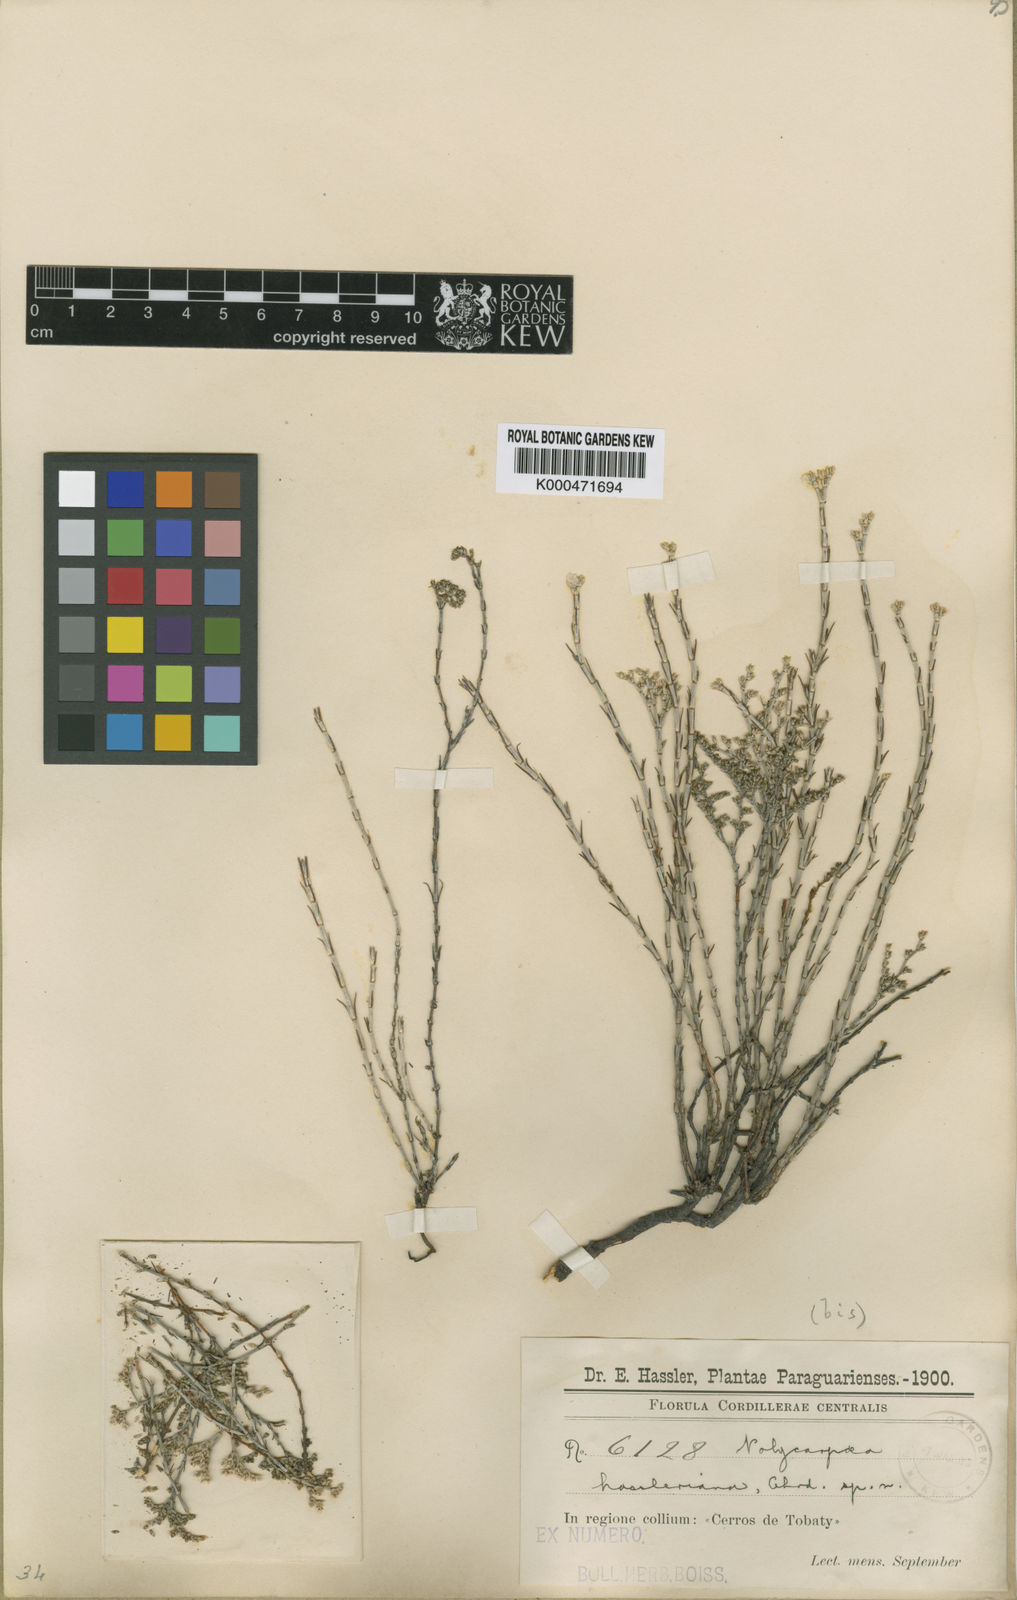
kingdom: Plantae
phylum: Tracheophyta
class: Magnoliopsida
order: Caryophyllales
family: Caryophyllaceae
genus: Polycarpaea
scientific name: Polycarpaea hassleriana
